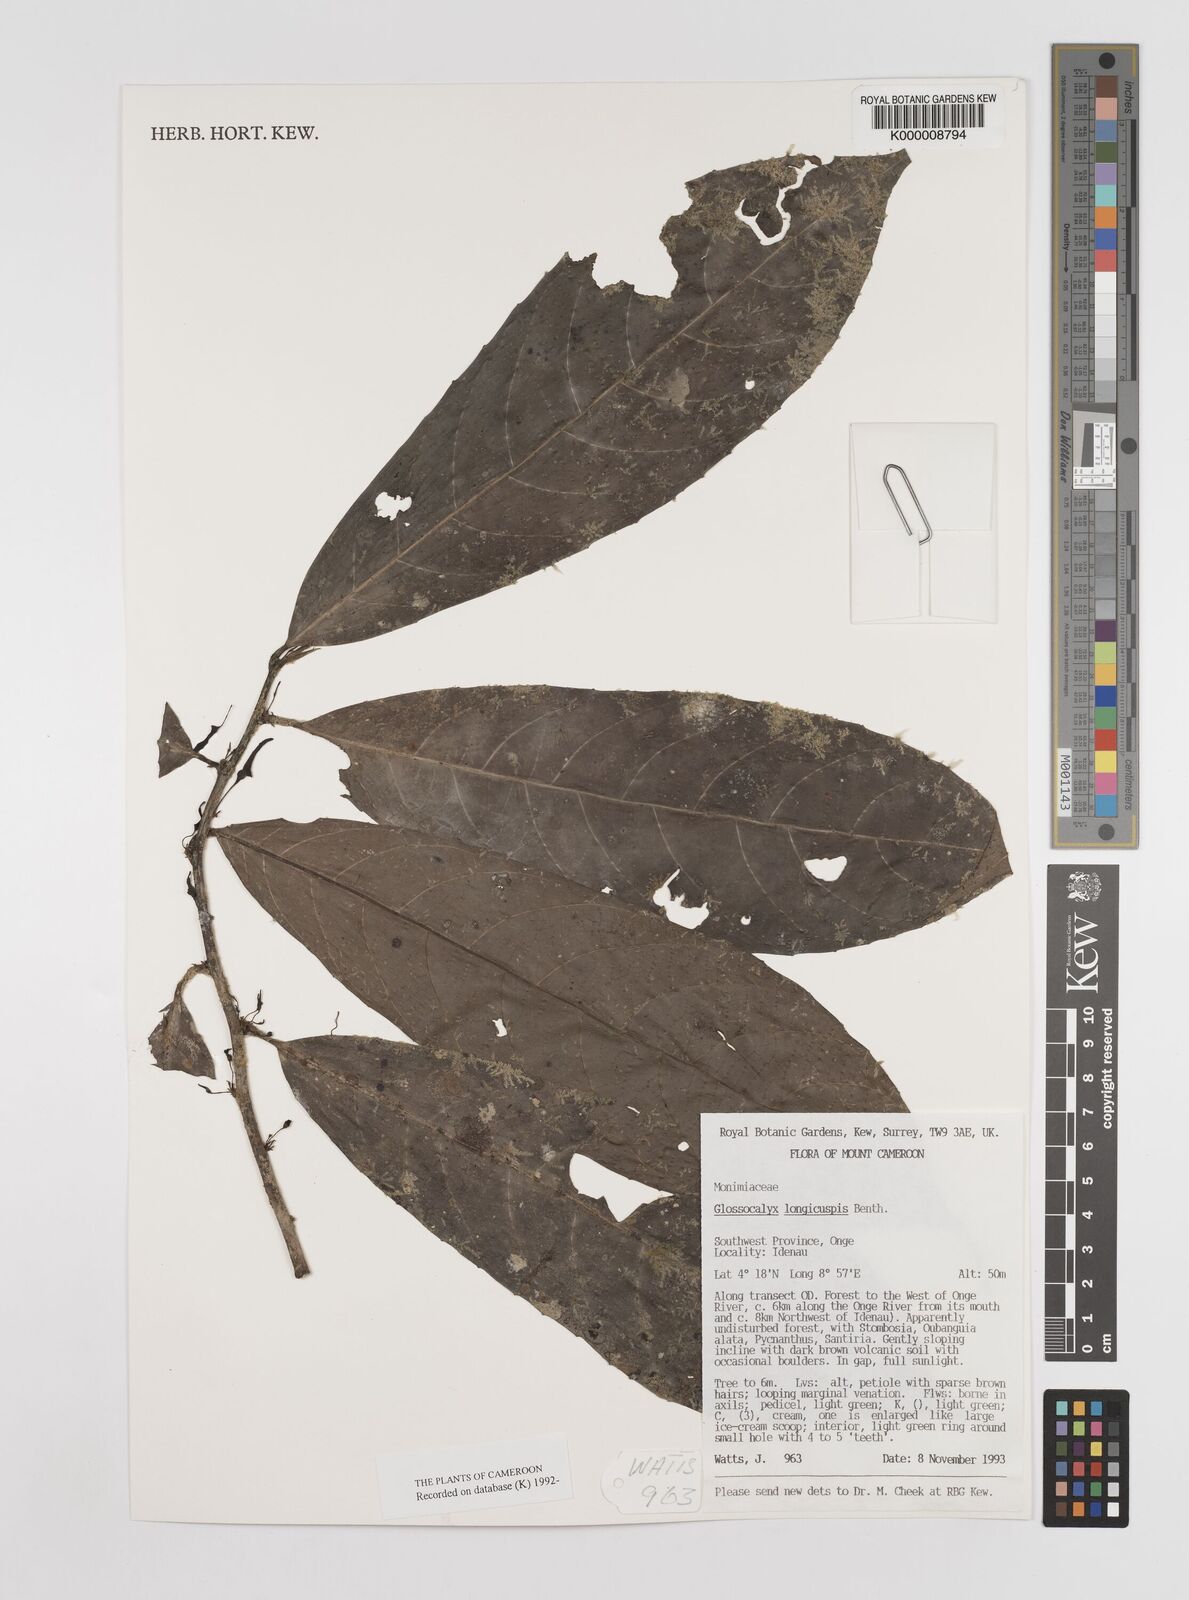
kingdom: Plantae
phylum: Tracheophyta
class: Magnoliopsida
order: Laurales
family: Siparunaceae
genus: Glossocalyx
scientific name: Glossocalyx longicuspis
